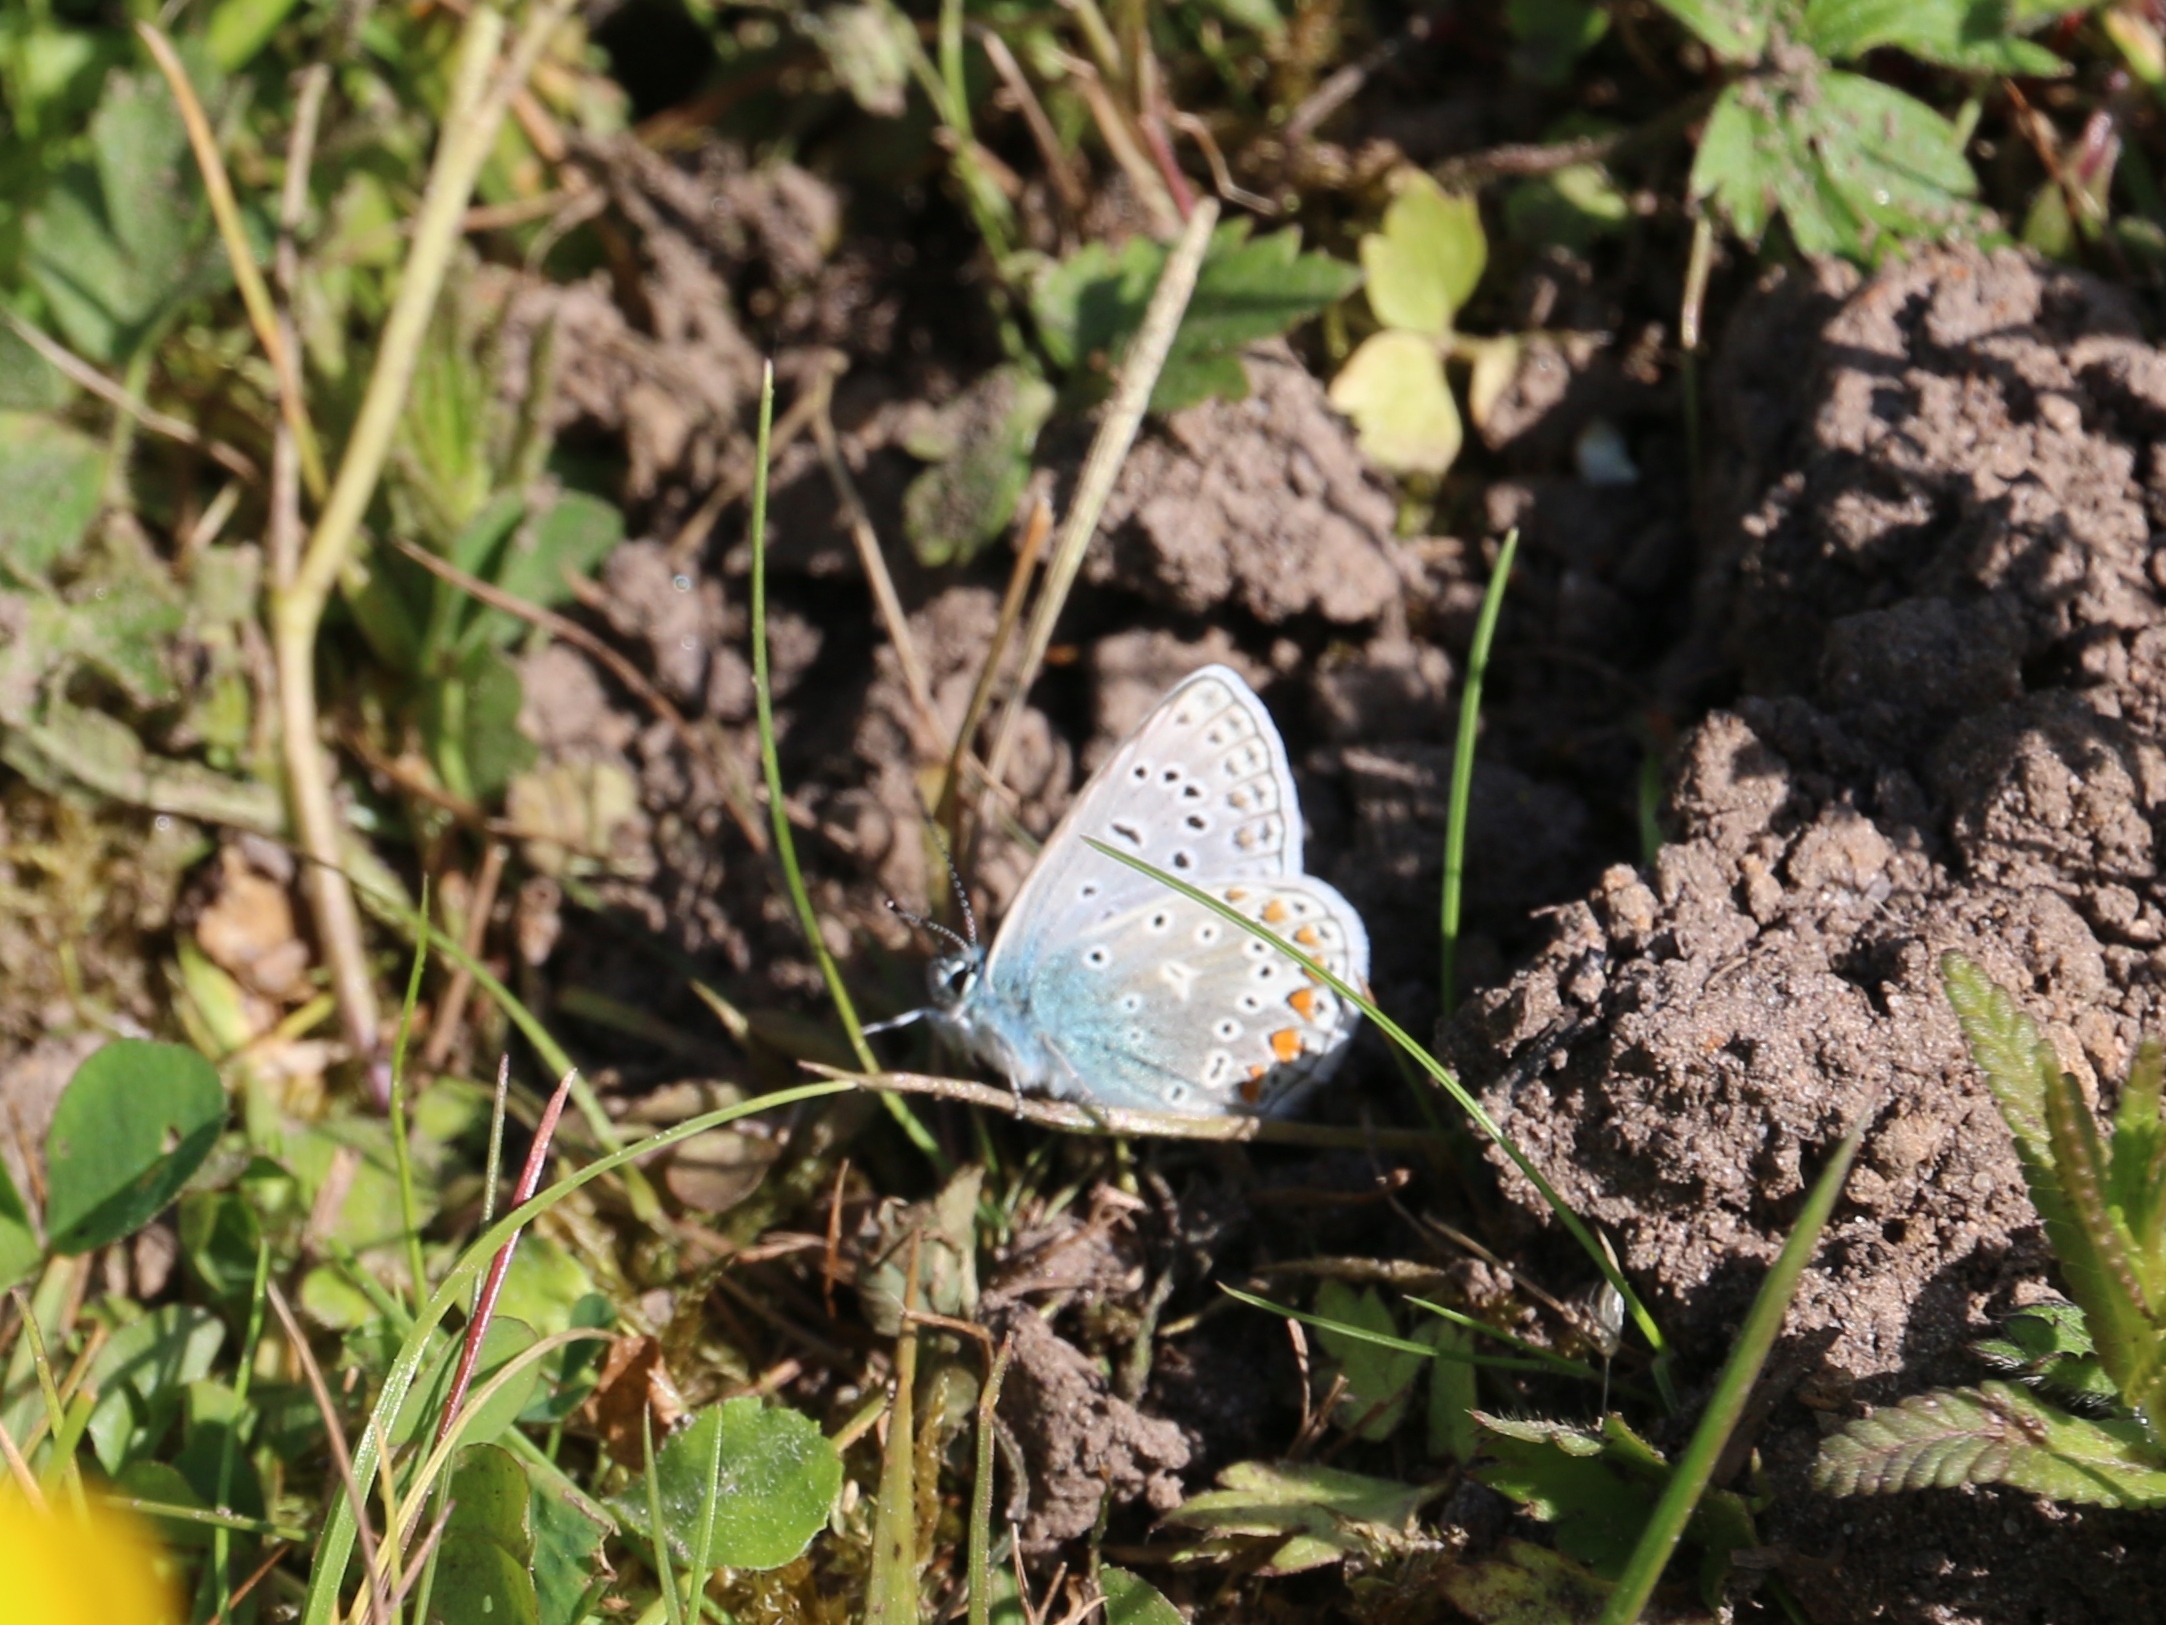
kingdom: Animalia
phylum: Arthropoda
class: Insecta
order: Lepidoptera
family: Lycaenidae
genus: Polyommatus
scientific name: Polyommatus icarus
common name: Almindelig blåfugl
